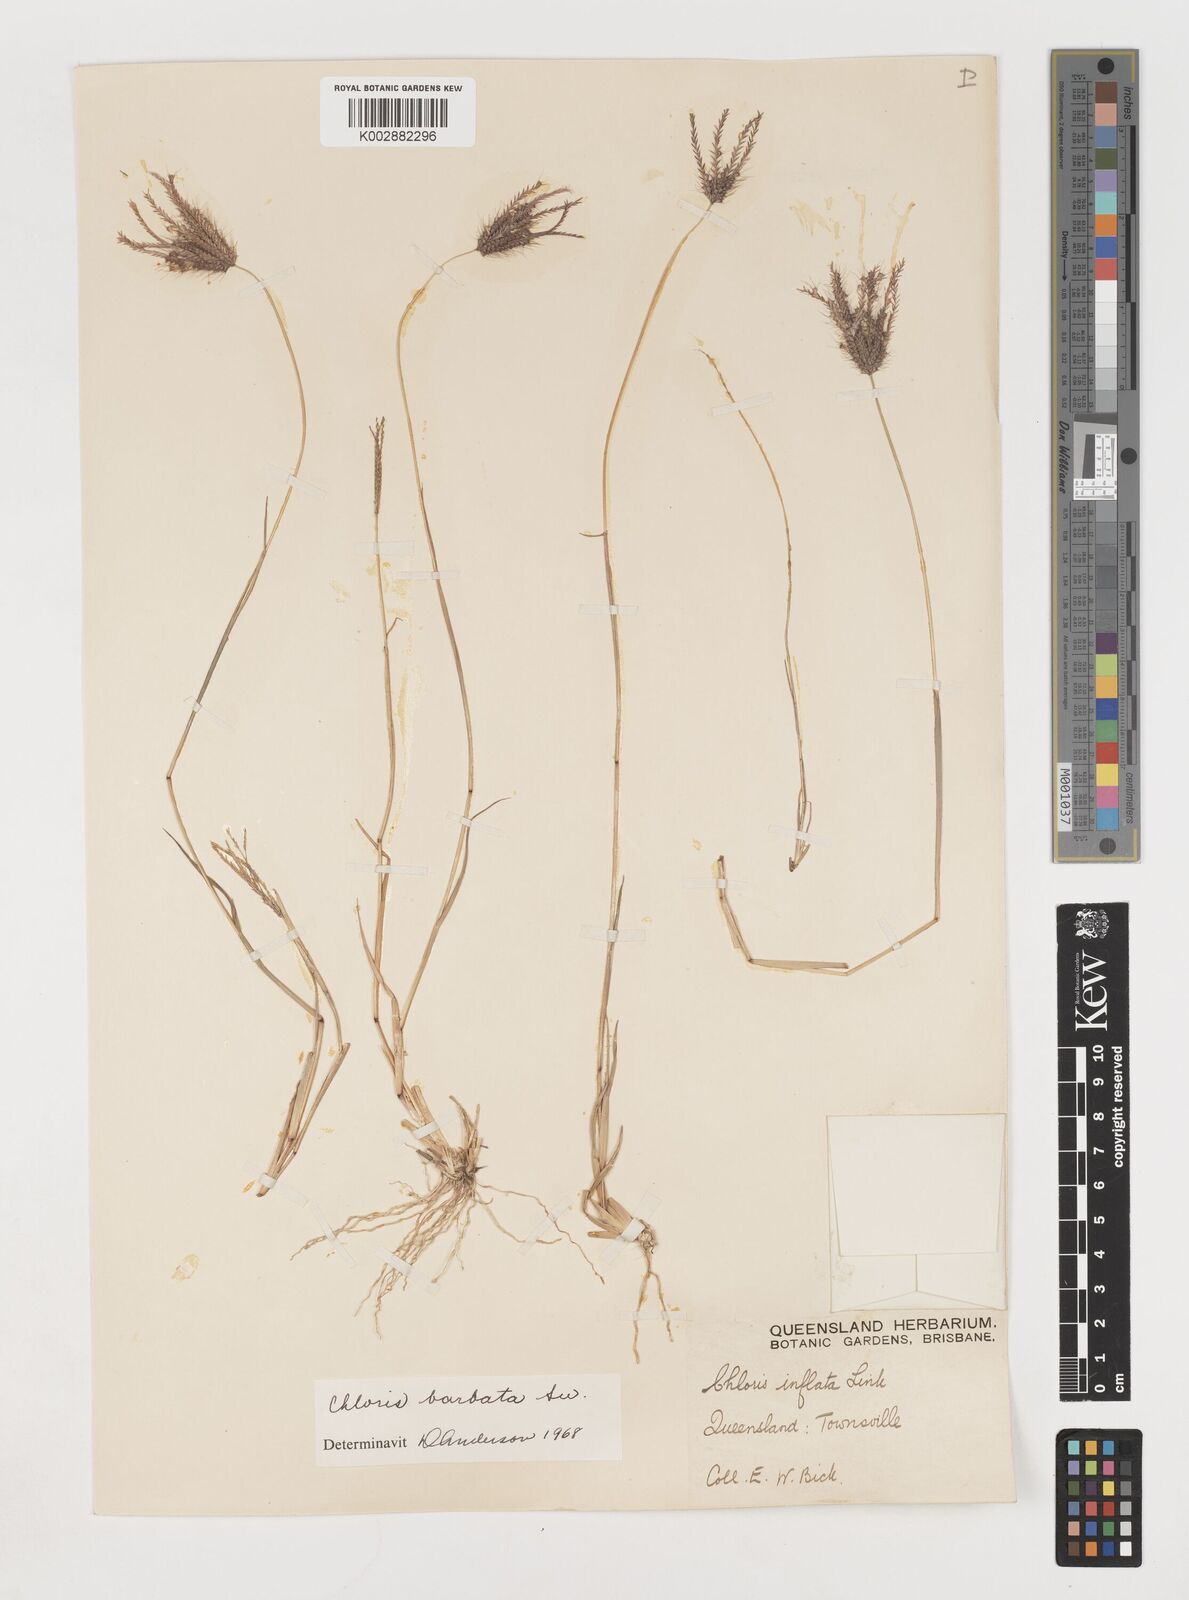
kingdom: Plantae
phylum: Tracheophyta
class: Liliopsida
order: Poales
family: Poaceae
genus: Chloris
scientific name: Chloris barbata
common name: Swollen fingergrass
